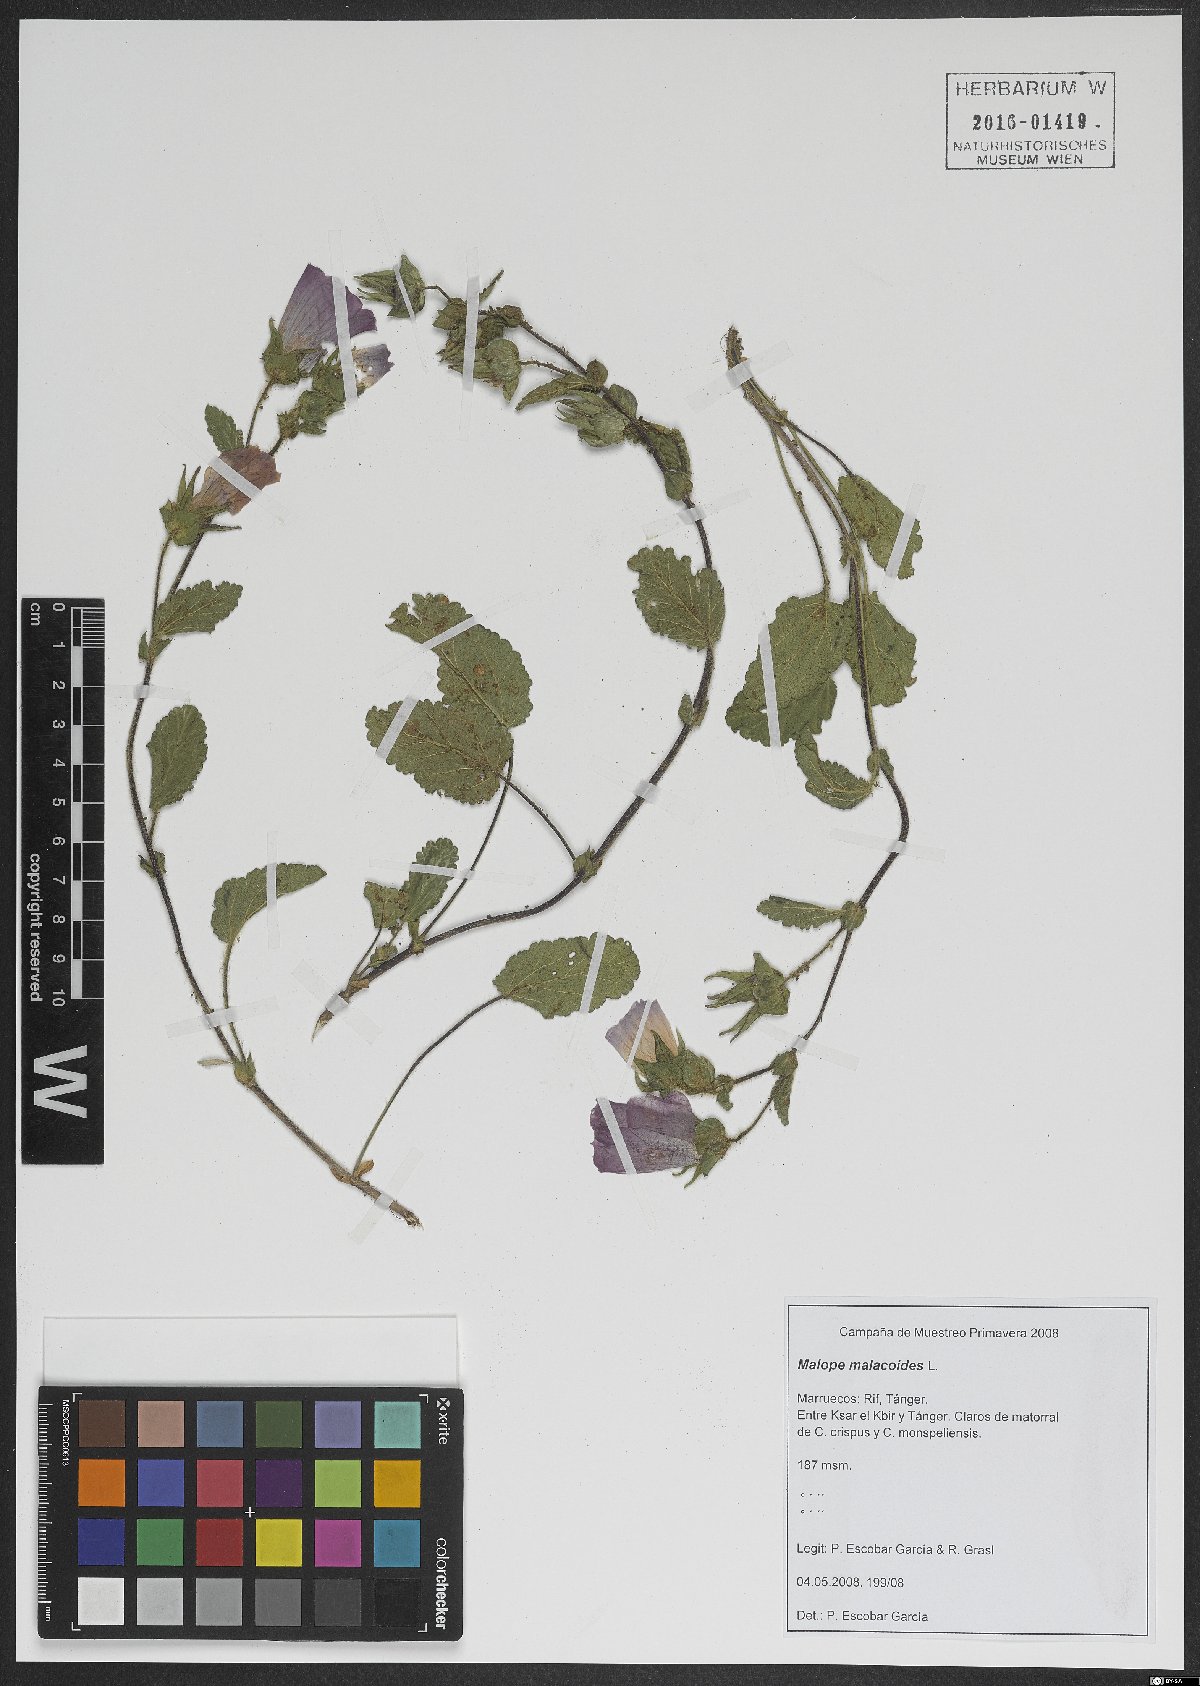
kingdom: Plantae
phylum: Tracheophyta
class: Magnoliopsida
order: Malvales
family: Malvaceae
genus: Malope
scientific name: Malope malacoides
